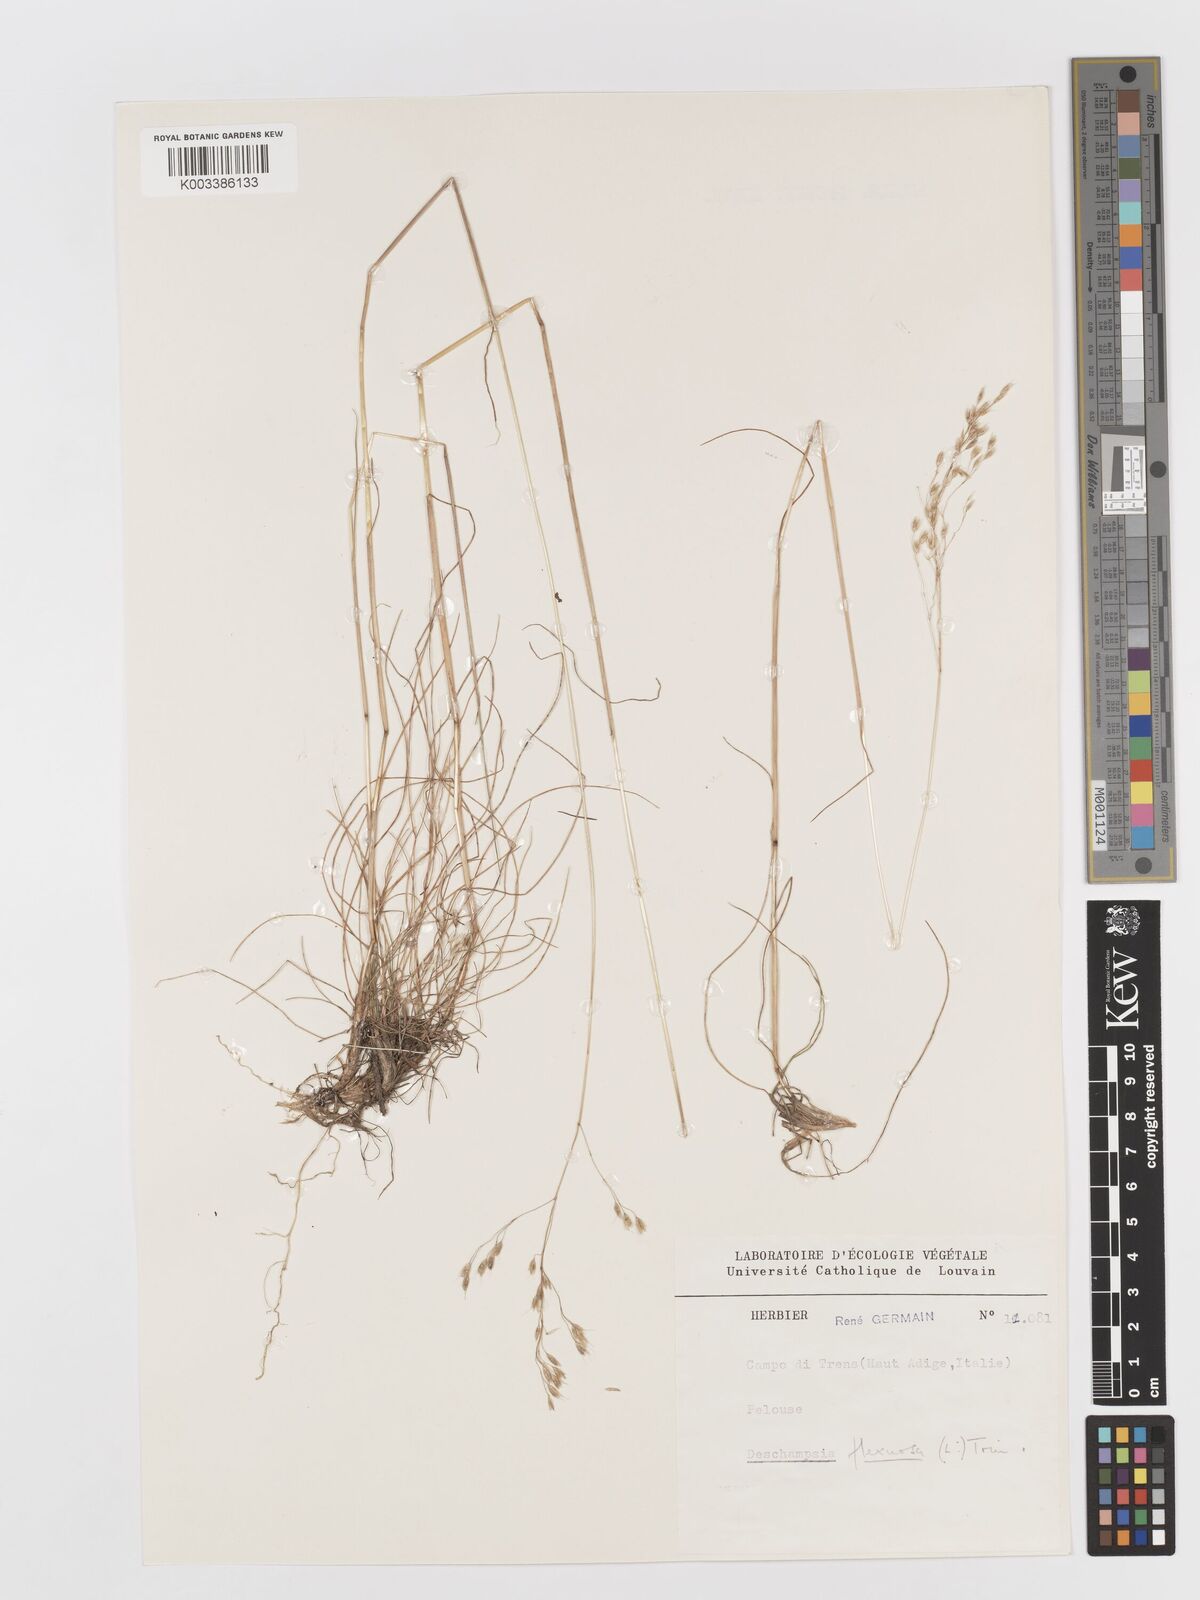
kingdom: Plantae
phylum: Tracheophyta
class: Liliopsida
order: Poales
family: Poaceae
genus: Avenella
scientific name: Avenella flexuosa
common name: Wavy hairgrass
